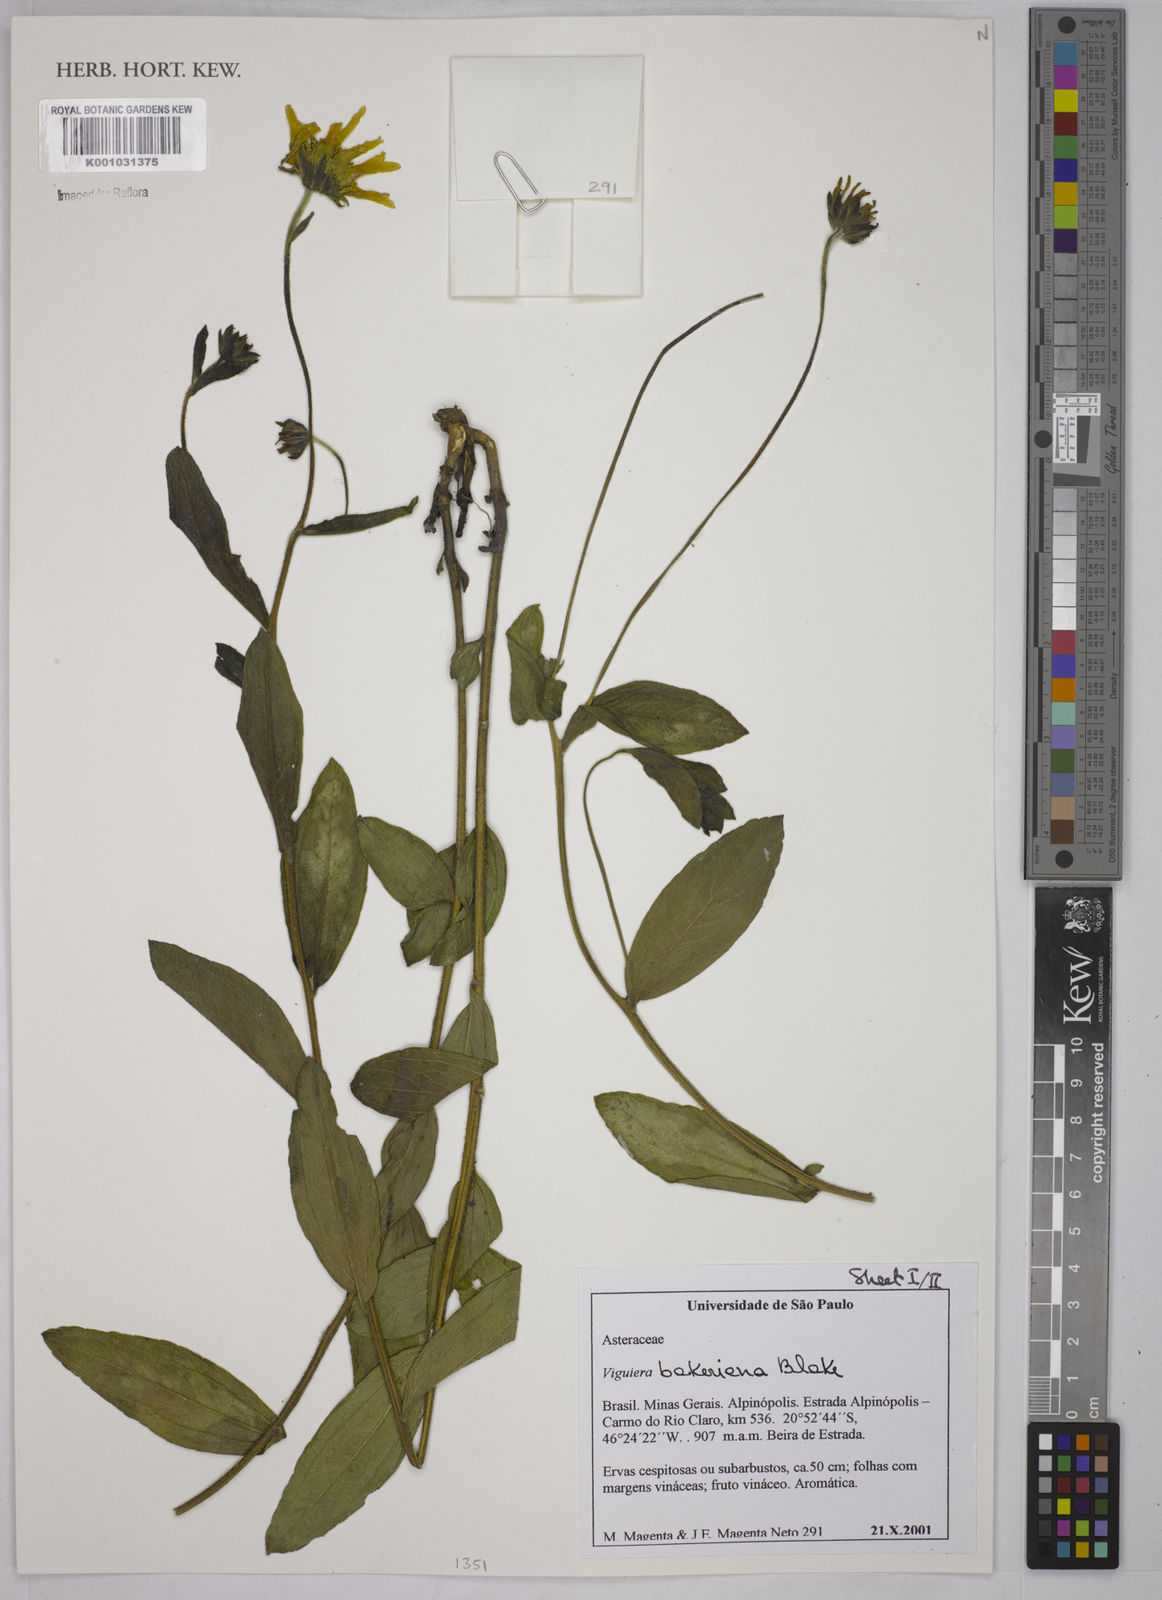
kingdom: Plantae
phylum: Tracheophyta
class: Magnoliopsida
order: Asterales
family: Asteraceae
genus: Aldama
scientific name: Aldama bakeriana
